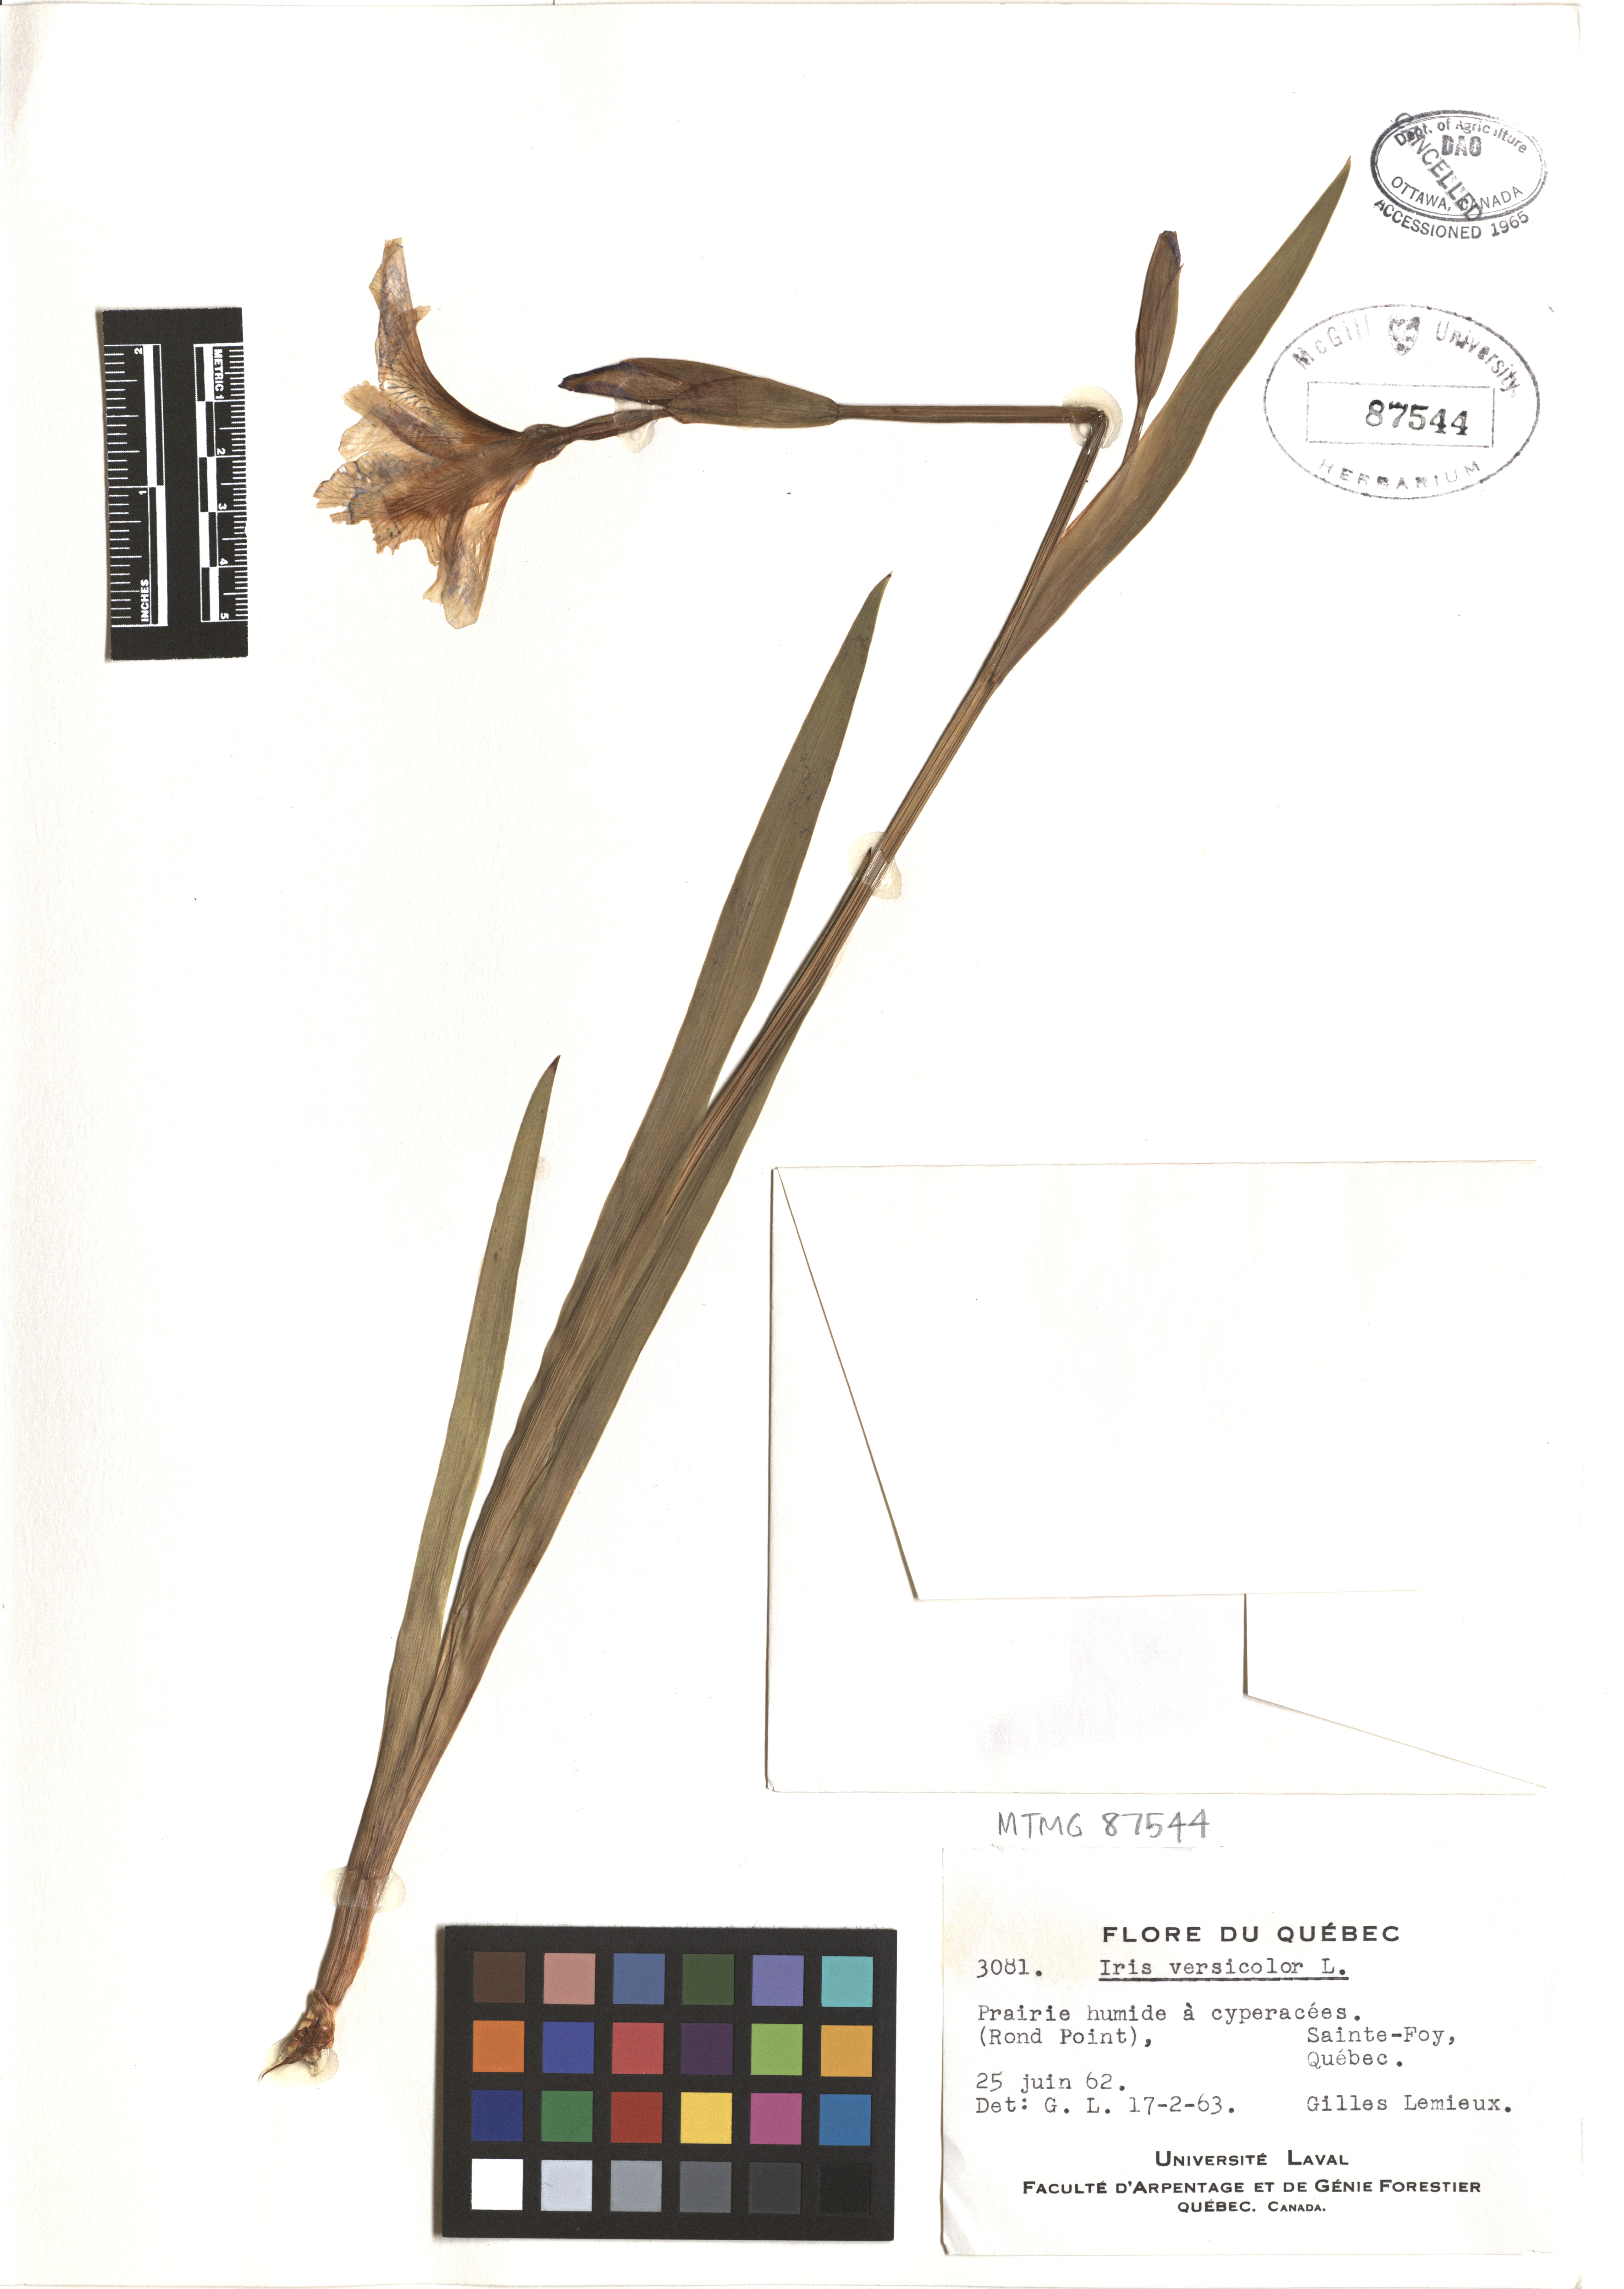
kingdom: Plantae
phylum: Tracheophyta
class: Liliopsida
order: Asparagales
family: Iridaceae
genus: Iris
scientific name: Iris versicolor
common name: Purple iris
